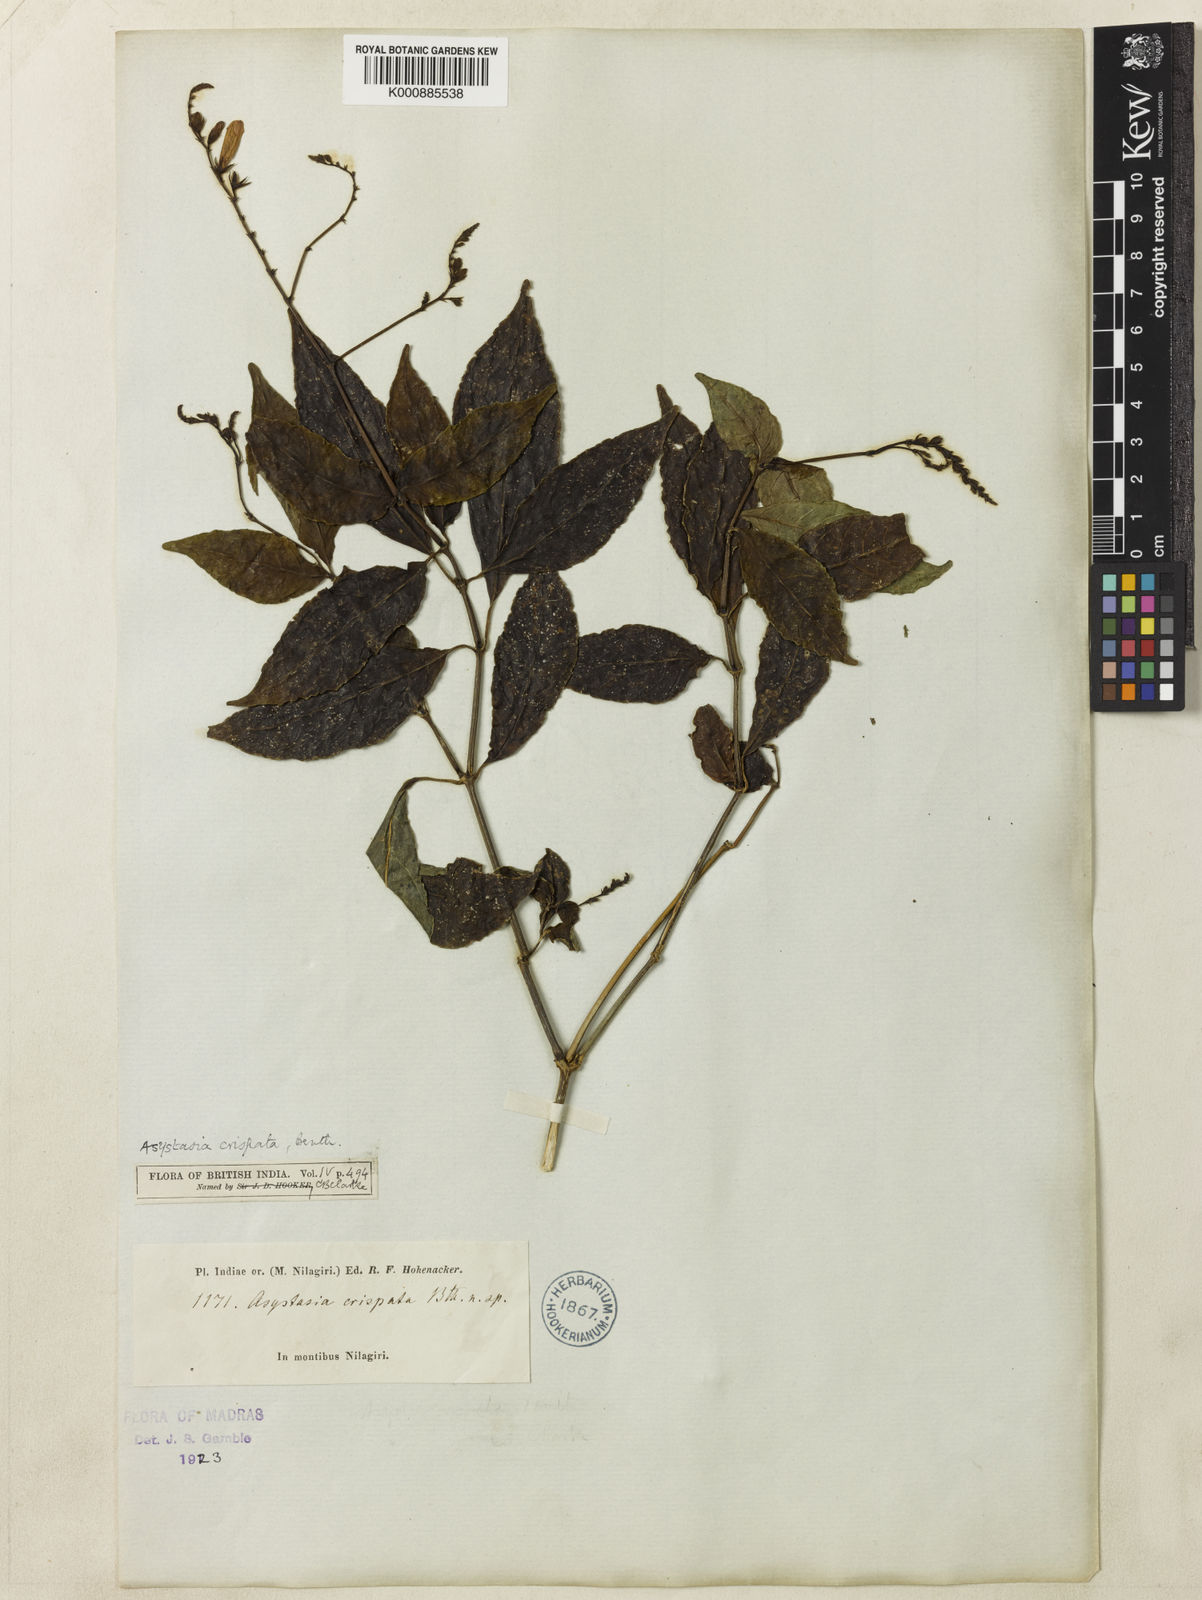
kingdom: Plantae
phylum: Tracheophyta
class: Magnoliopsida
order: Lamiales
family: Acanthaceae
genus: Asystasia
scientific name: Asystasia chelonoides
